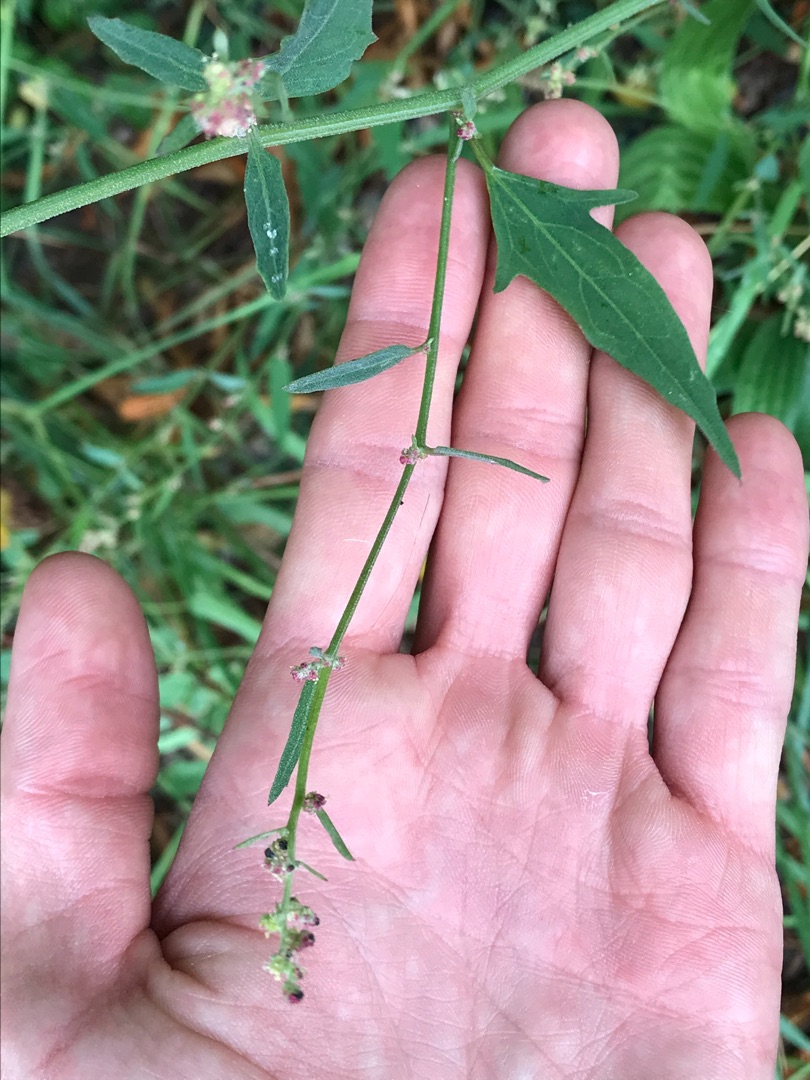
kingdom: Plantae
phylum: Tracheophyta
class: Magnoliopsida
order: Caryophyllales
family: Amaranthaceae
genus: Atriplex
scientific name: Atriplex patula
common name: Svine-mælde
